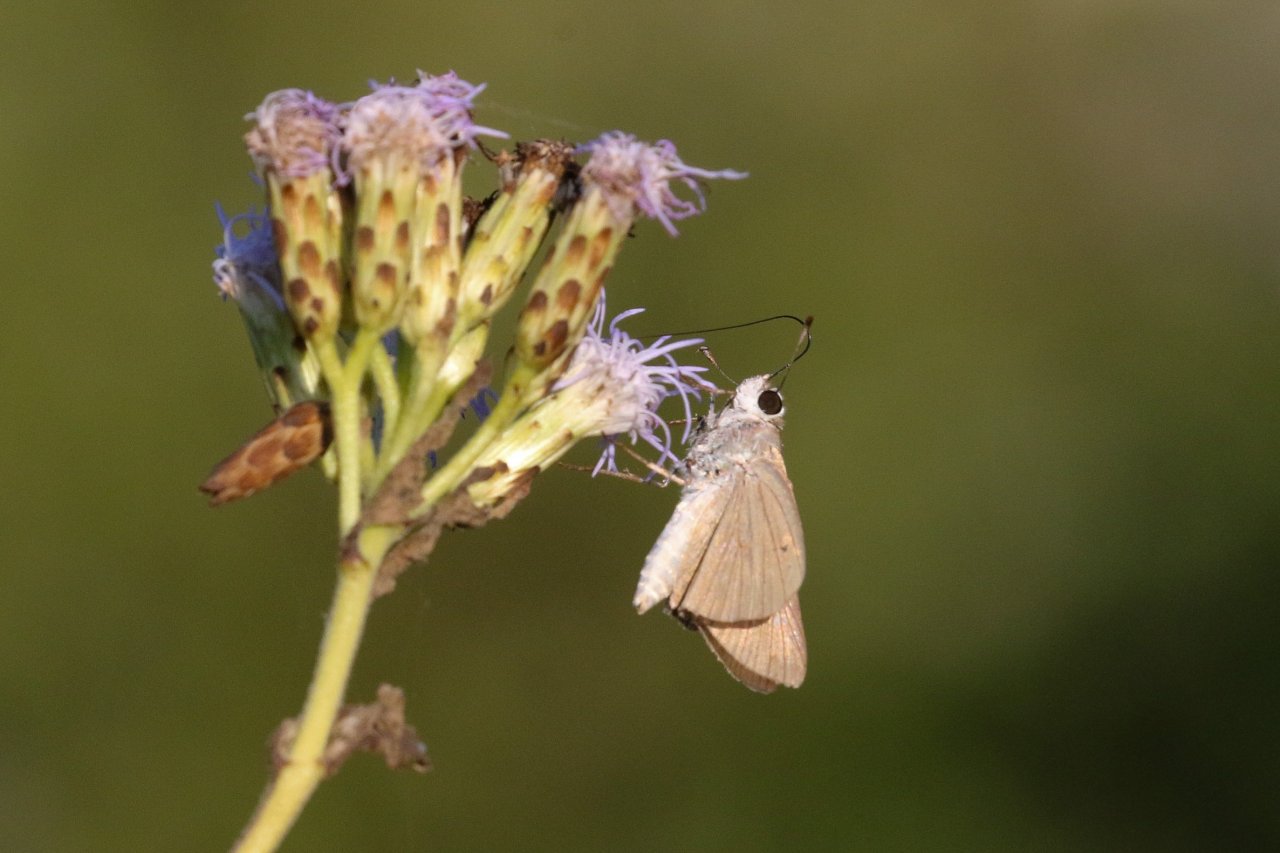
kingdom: Animalia
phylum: Arthropoda
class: Insecta
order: Lepidoptera
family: Hesperiidae
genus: Lerodea
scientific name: Lerodea eufala
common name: Eufala Skipper
